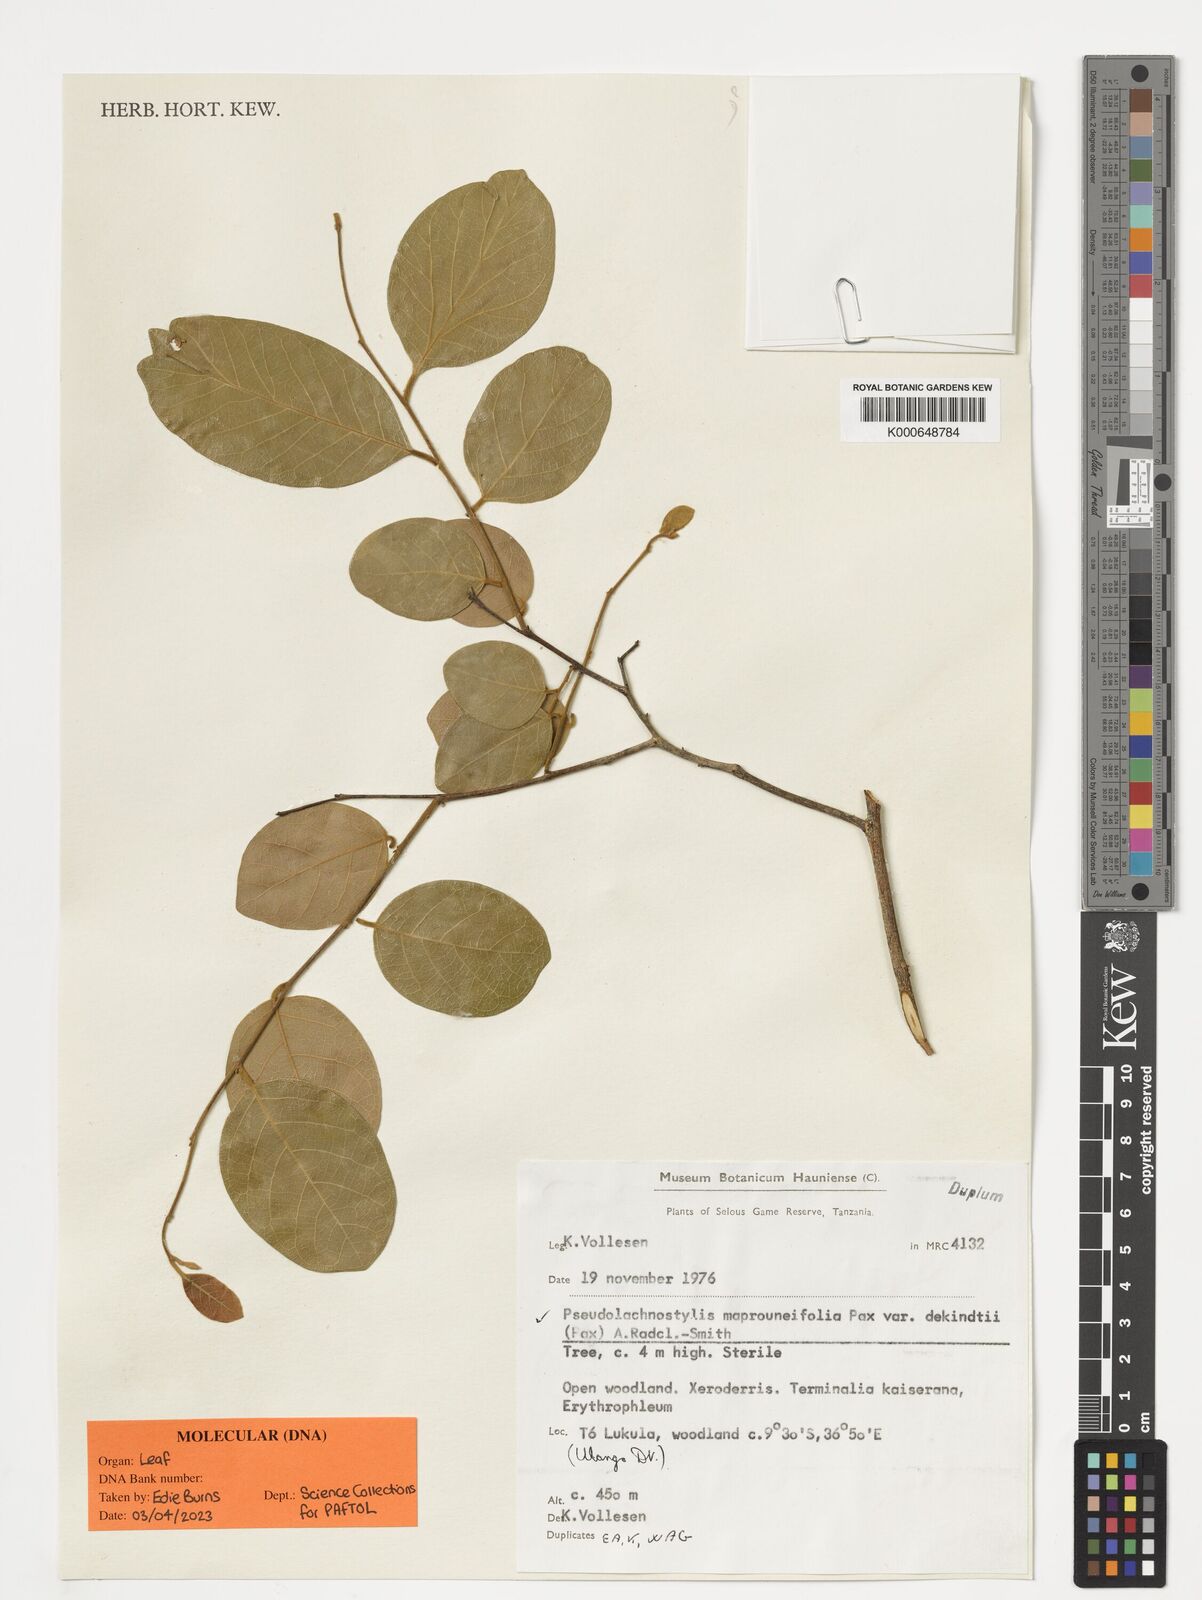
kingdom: Plantae
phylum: Tracheophyta
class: Magnoliopsida
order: Malpighiales
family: Phyllanthaceae
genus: Pseudolachnostylis
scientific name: Pseudolachnostylis maprouneifolia
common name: Kudu berry
